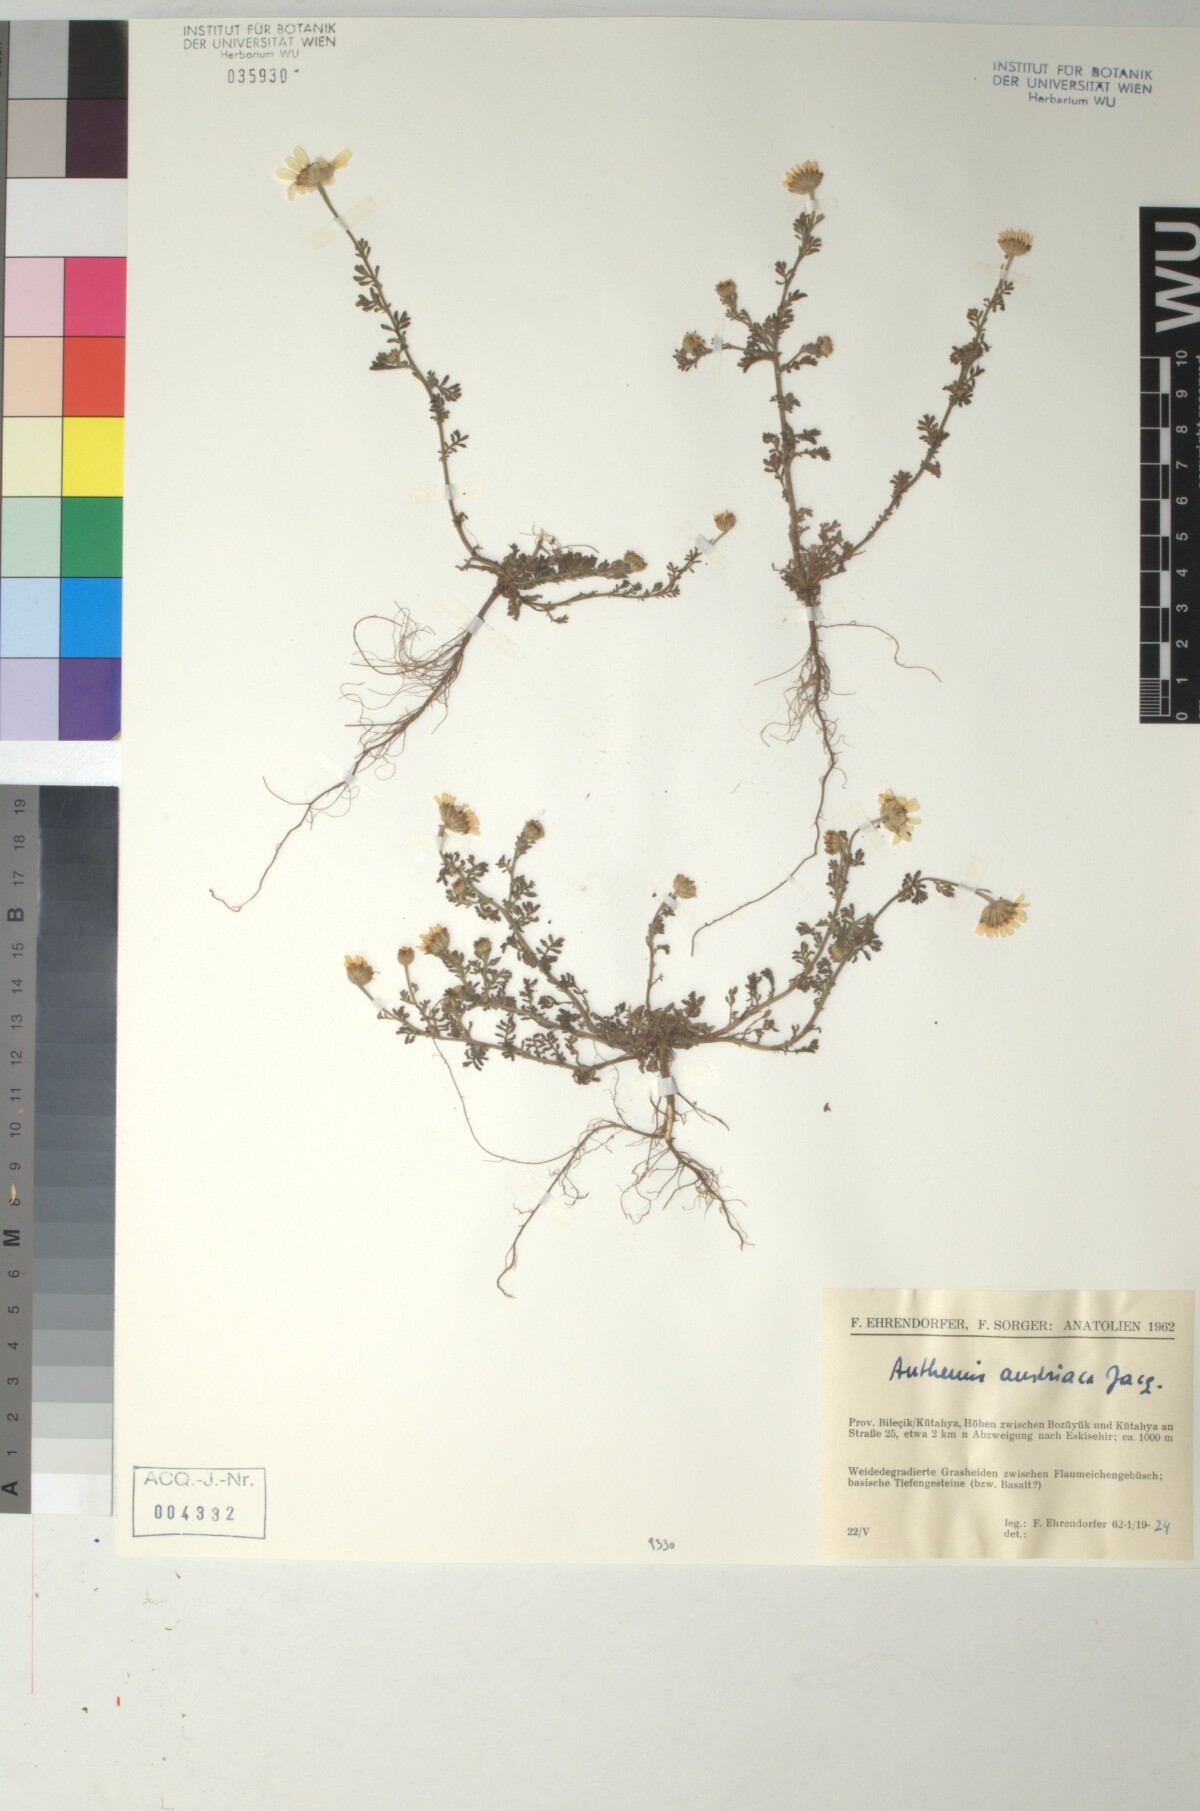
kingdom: Plantae
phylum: Tracheophyta
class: Magnoliopsida
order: Asterales
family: Asteraceae
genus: Cota
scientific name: Cota austriaca
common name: Austrian chamomile
